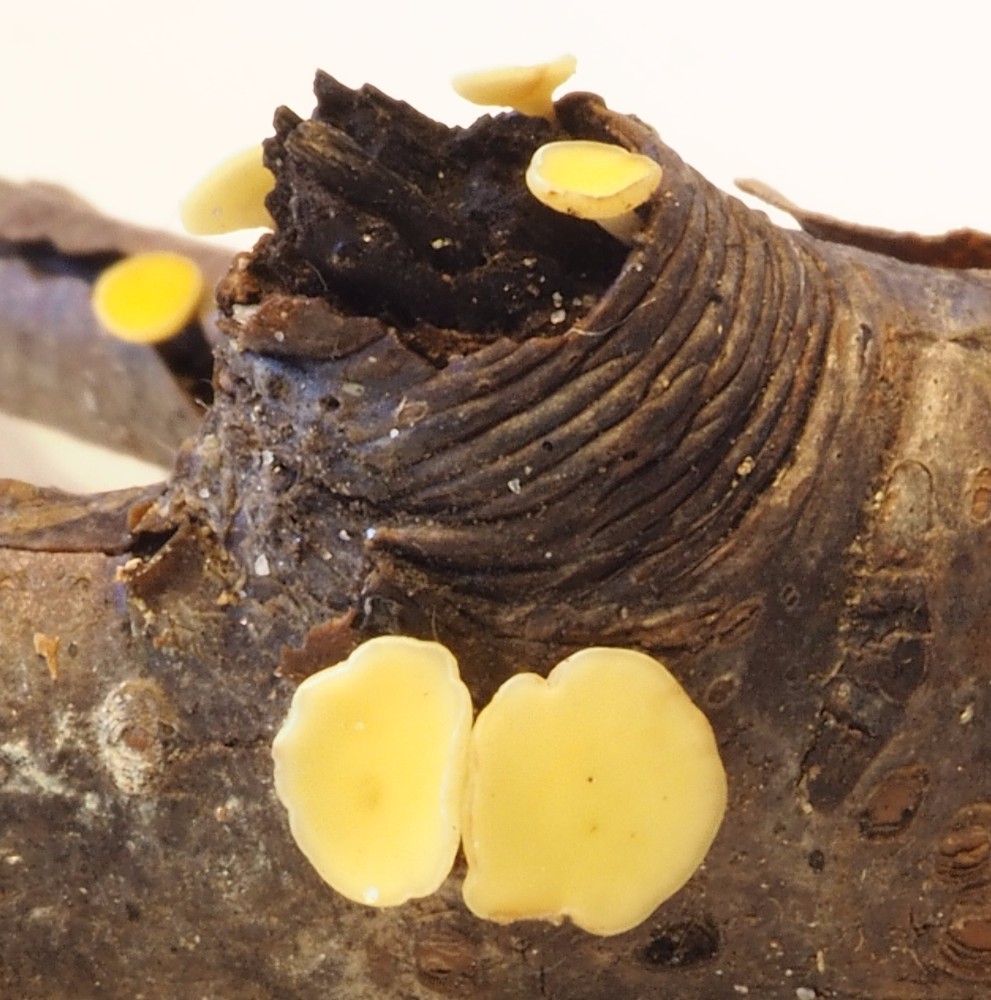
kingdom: Fungi
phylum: Ascomycota
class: Leotiomycetes
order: Helotiales
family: Helotiaceae
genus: Hymenoscyphus
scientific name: Hymenoscyphus serotinus
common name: krumsporet stilkskive
